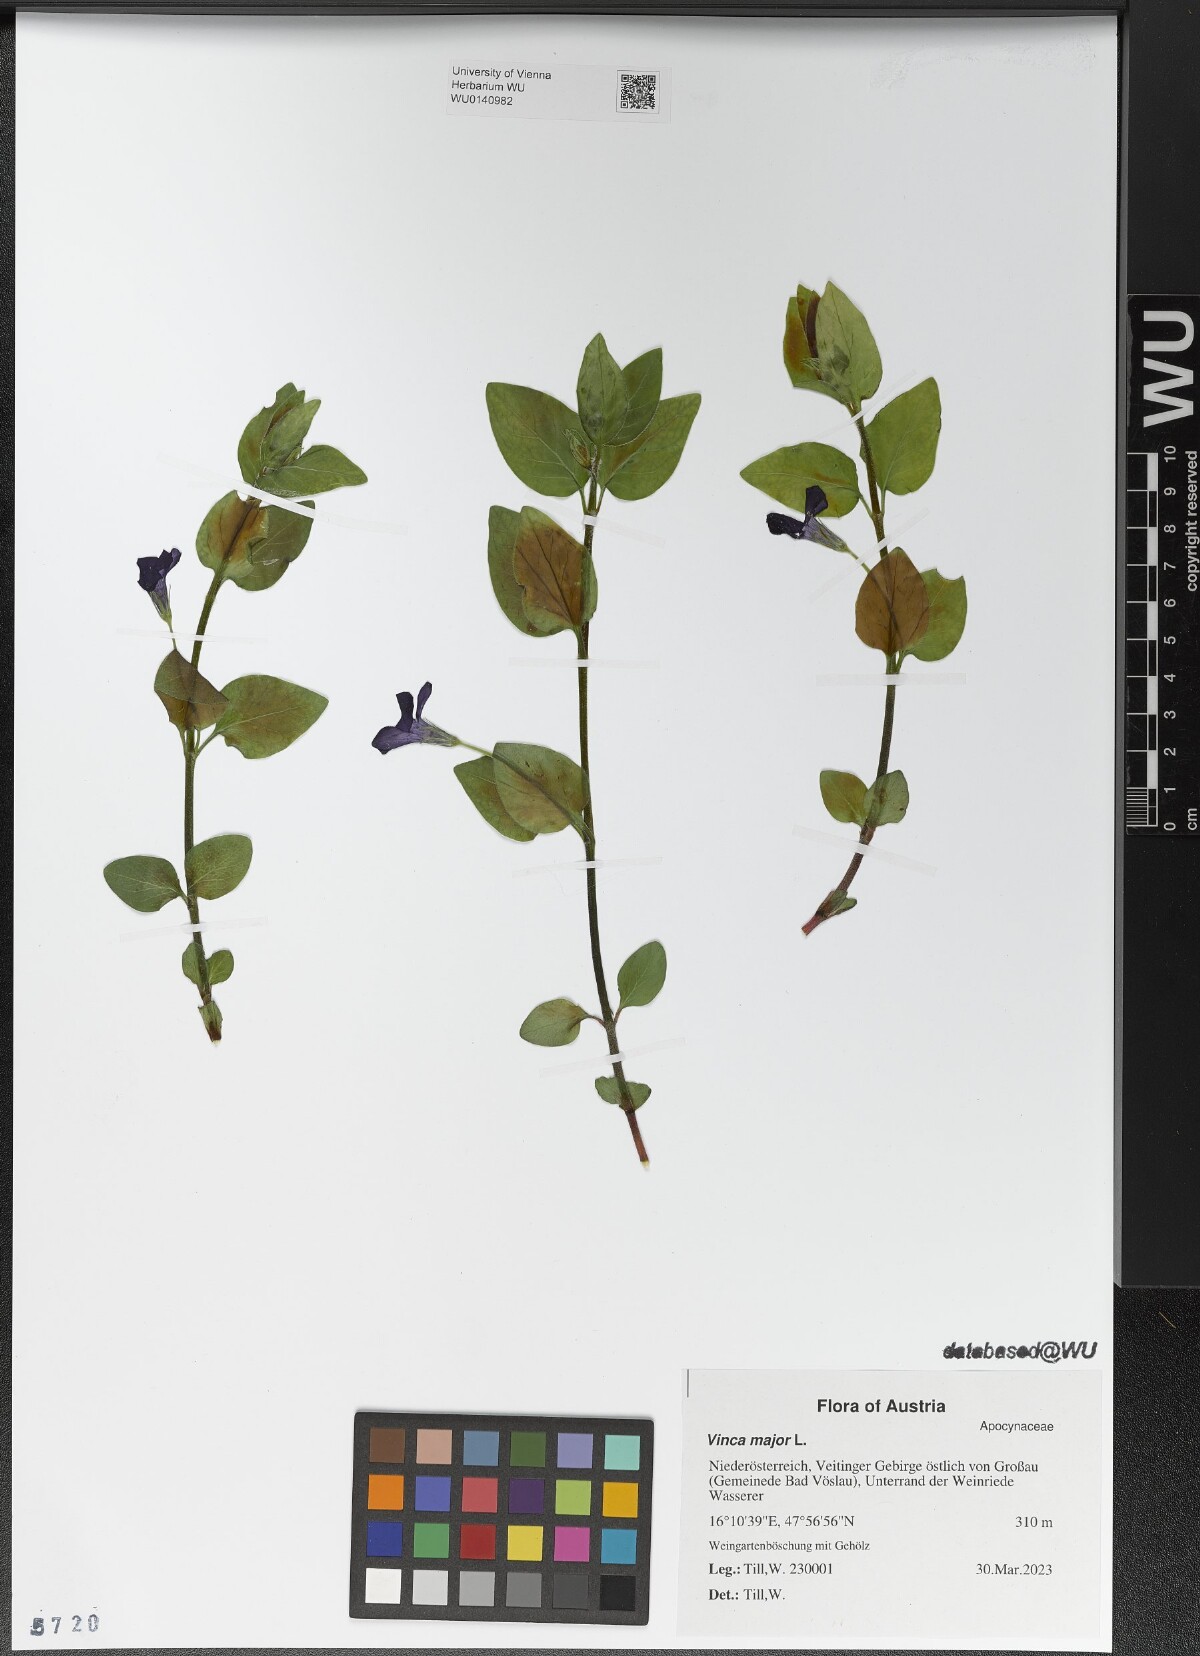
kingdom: Plantae
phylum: Tracheophyta
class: Magnoliopsida
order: Gentianales
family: Apocynaceae
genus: Vinca
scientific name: Vinca major
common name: Greater periwinkle
